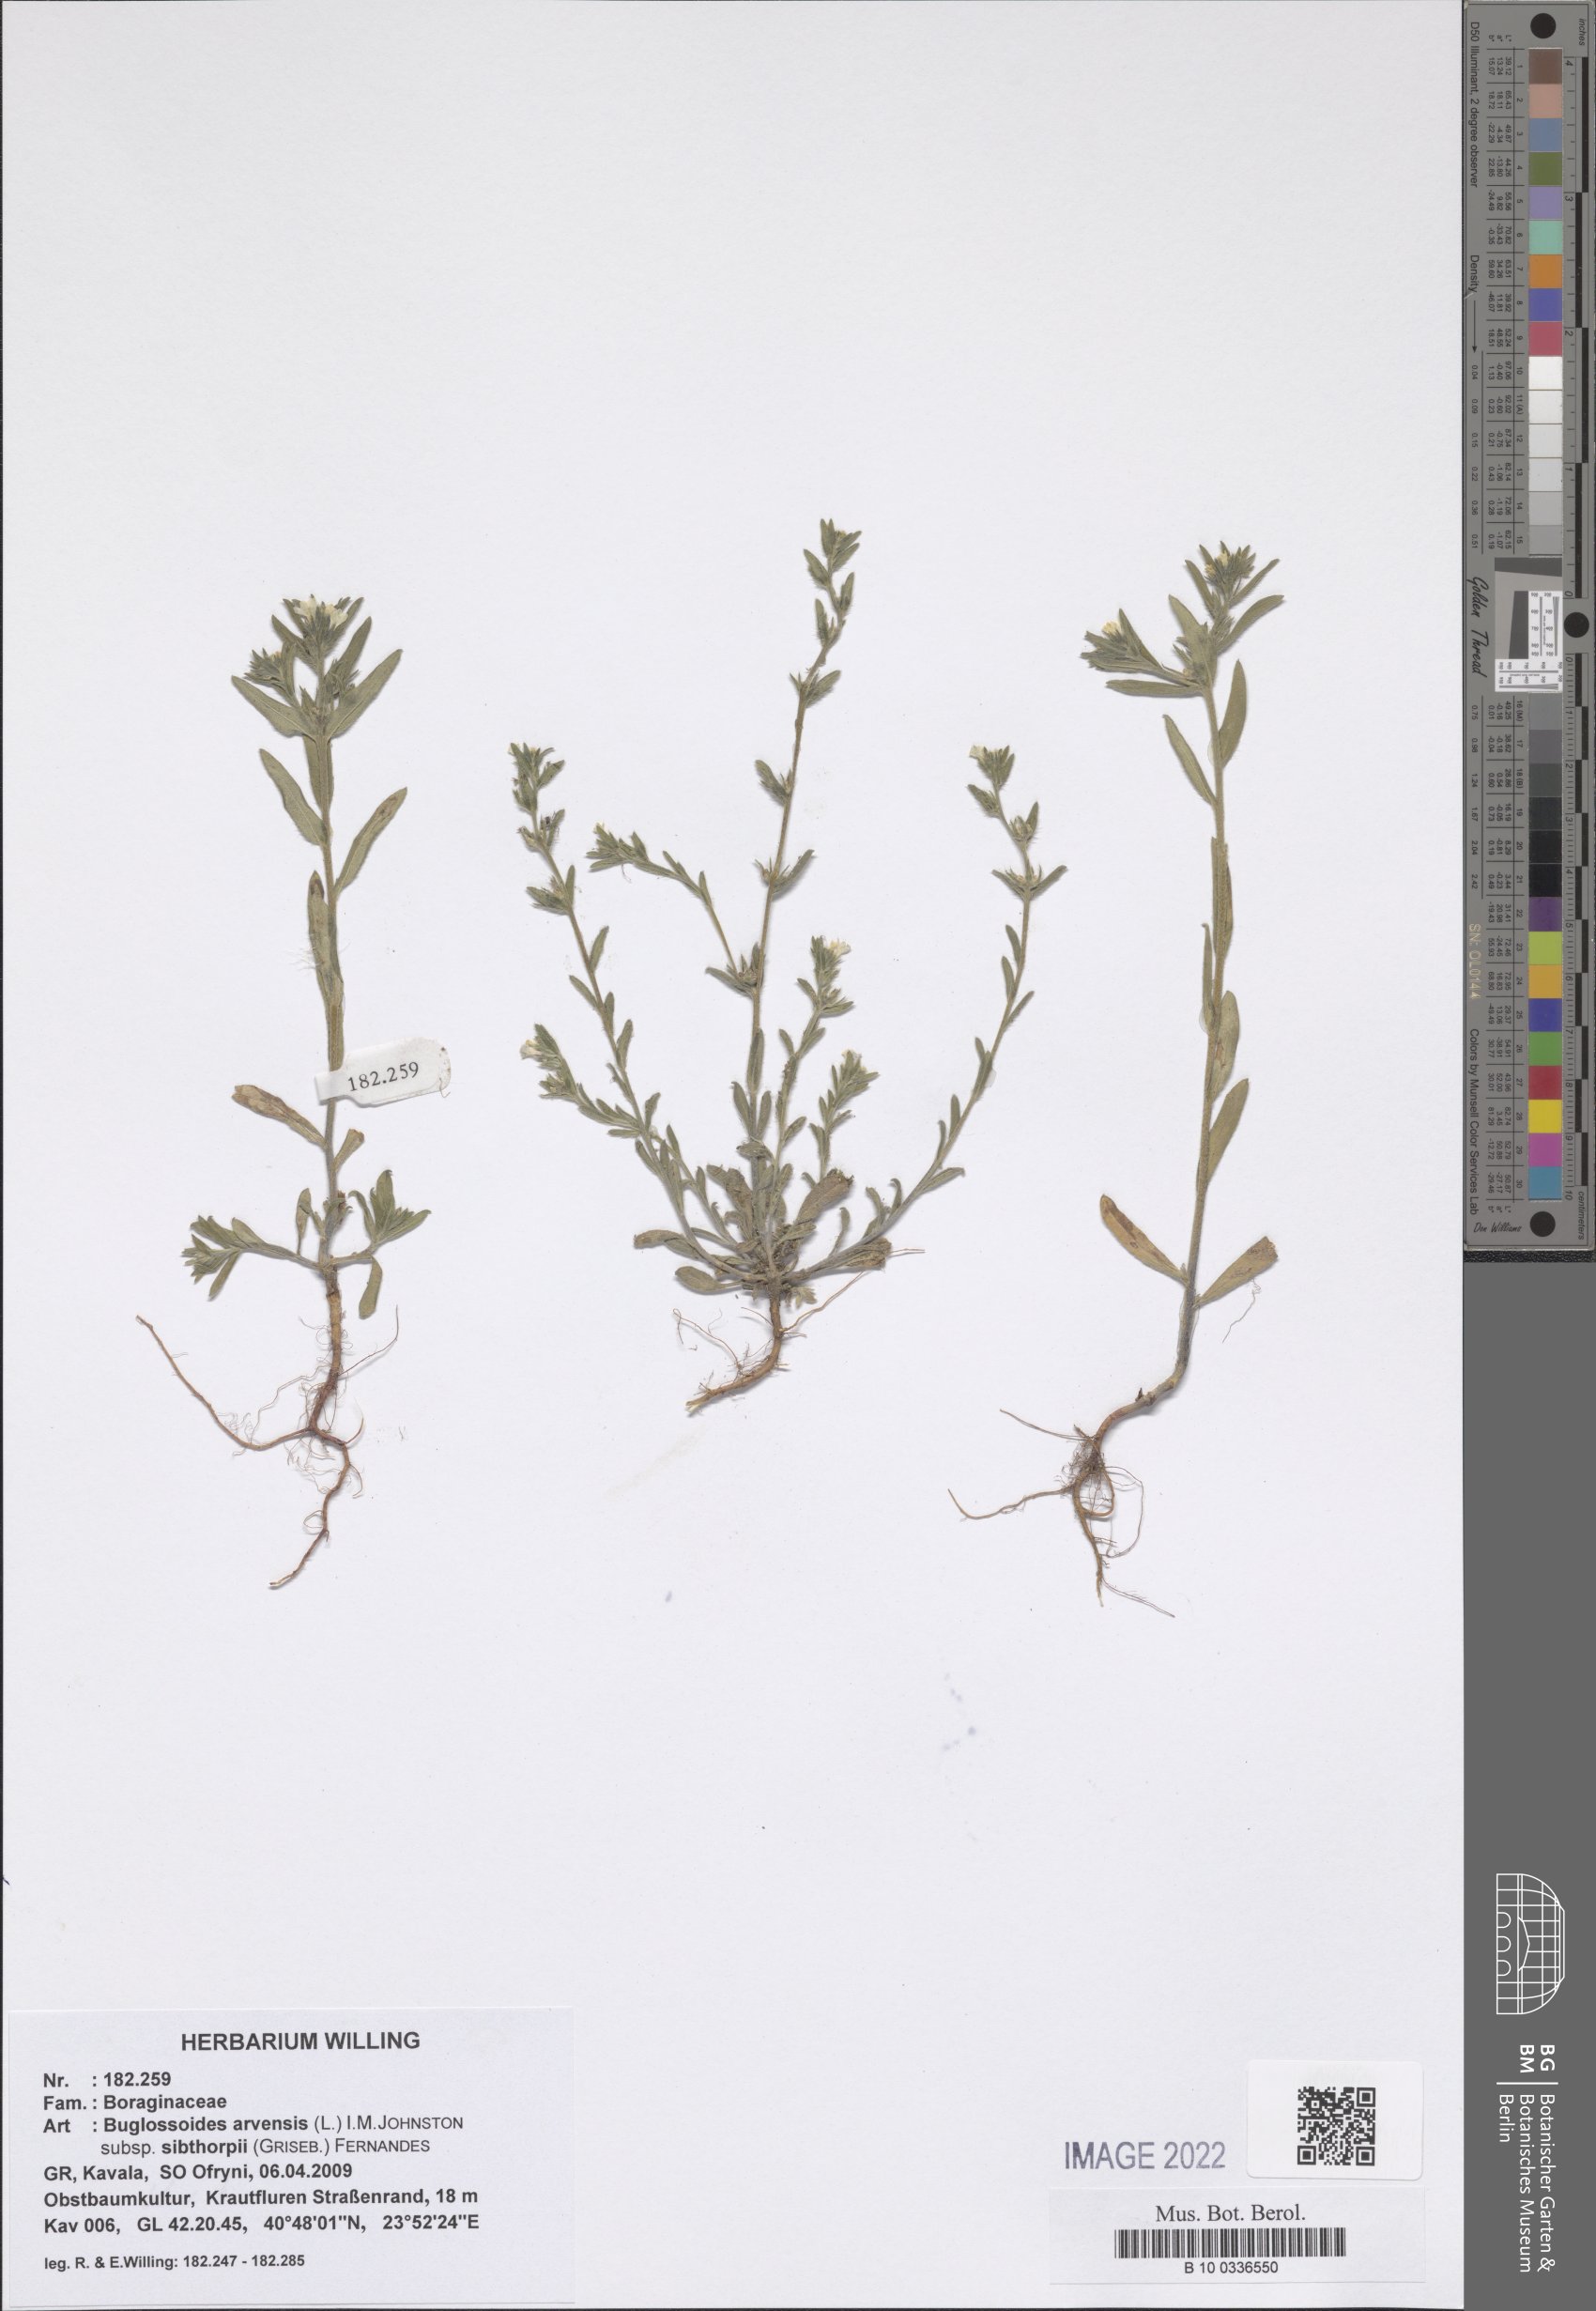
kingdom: Plantae
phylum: Tracheophyta
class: Magnoliopsida
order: Boraginales
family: Boraginaceae
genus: Buglossoides
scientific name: Buglossoides arvensis
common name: Corn gromwell
